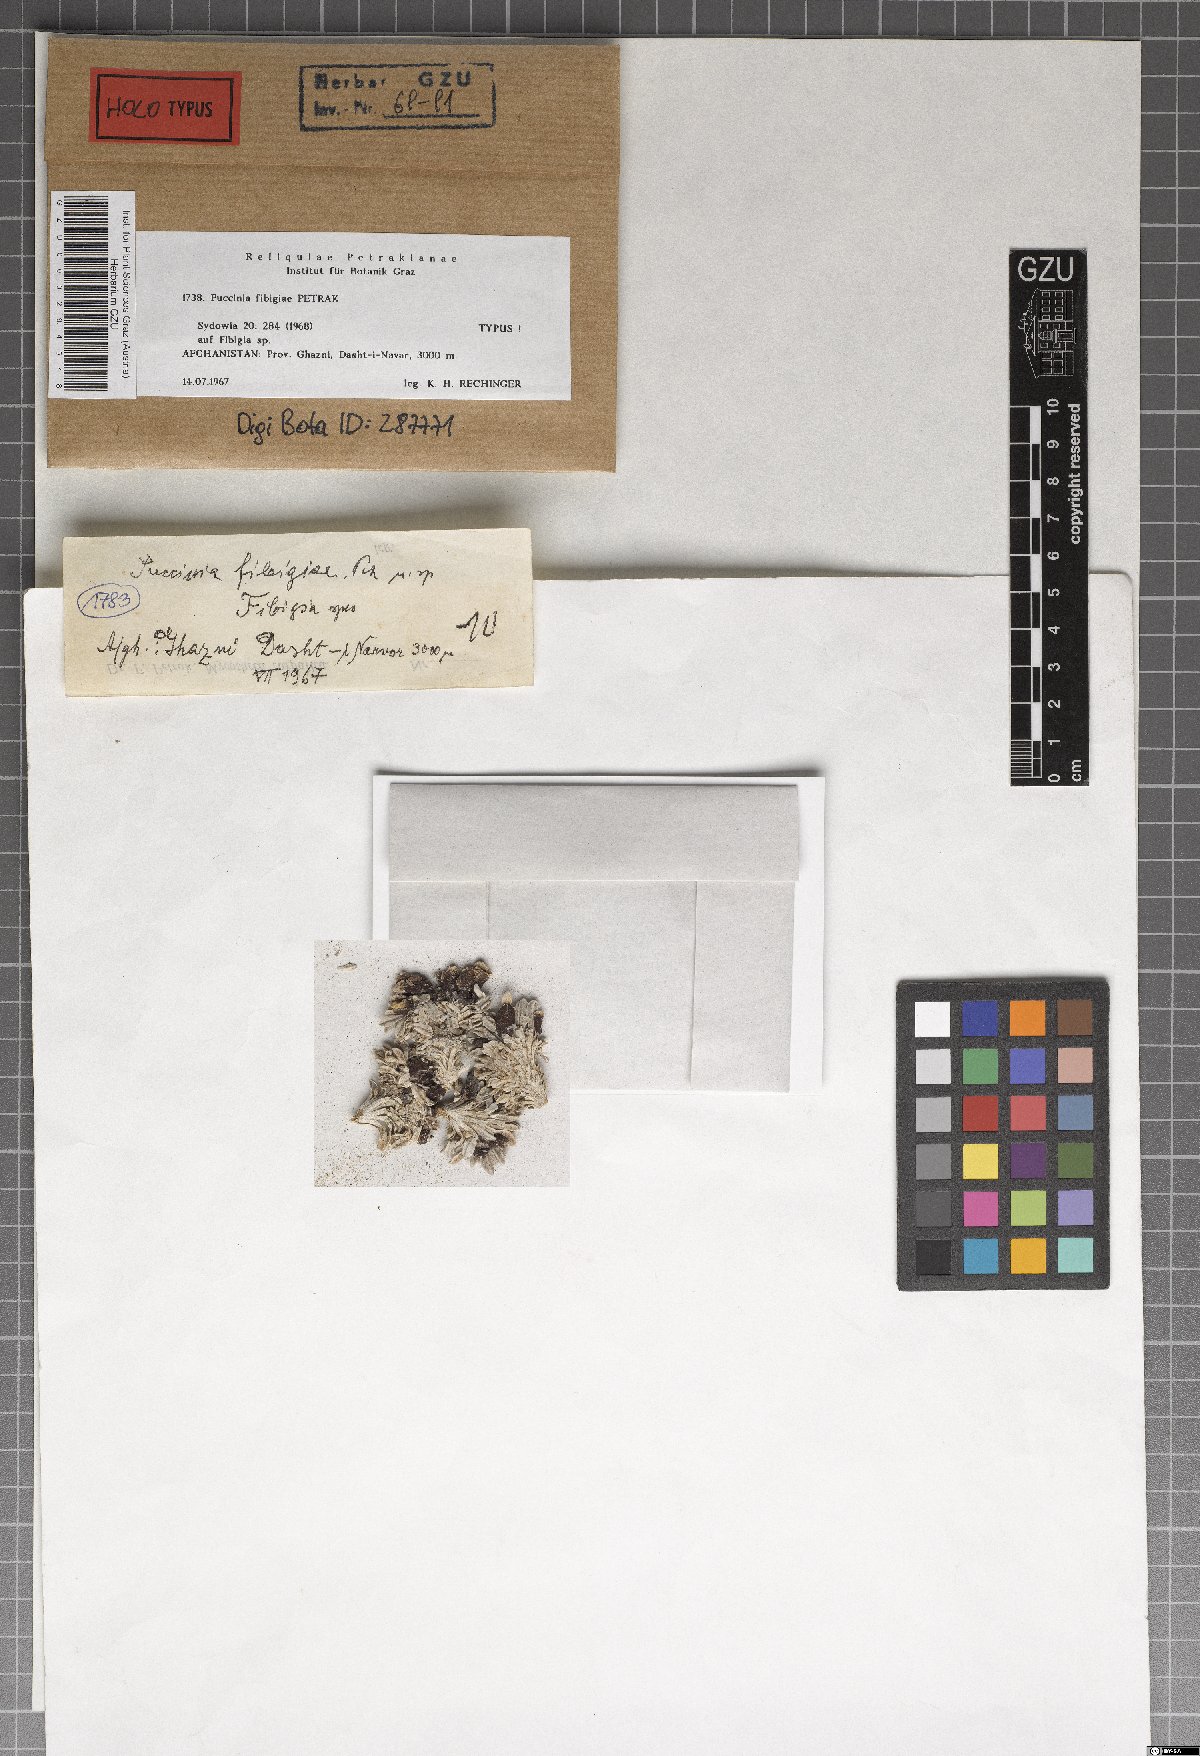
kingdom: Fungi
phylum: Basidiomycota
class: Pucciniomycetes
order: Pucciniales
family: Pucciniaceae
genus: Puccinia
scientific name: Puccinia fibigiae
